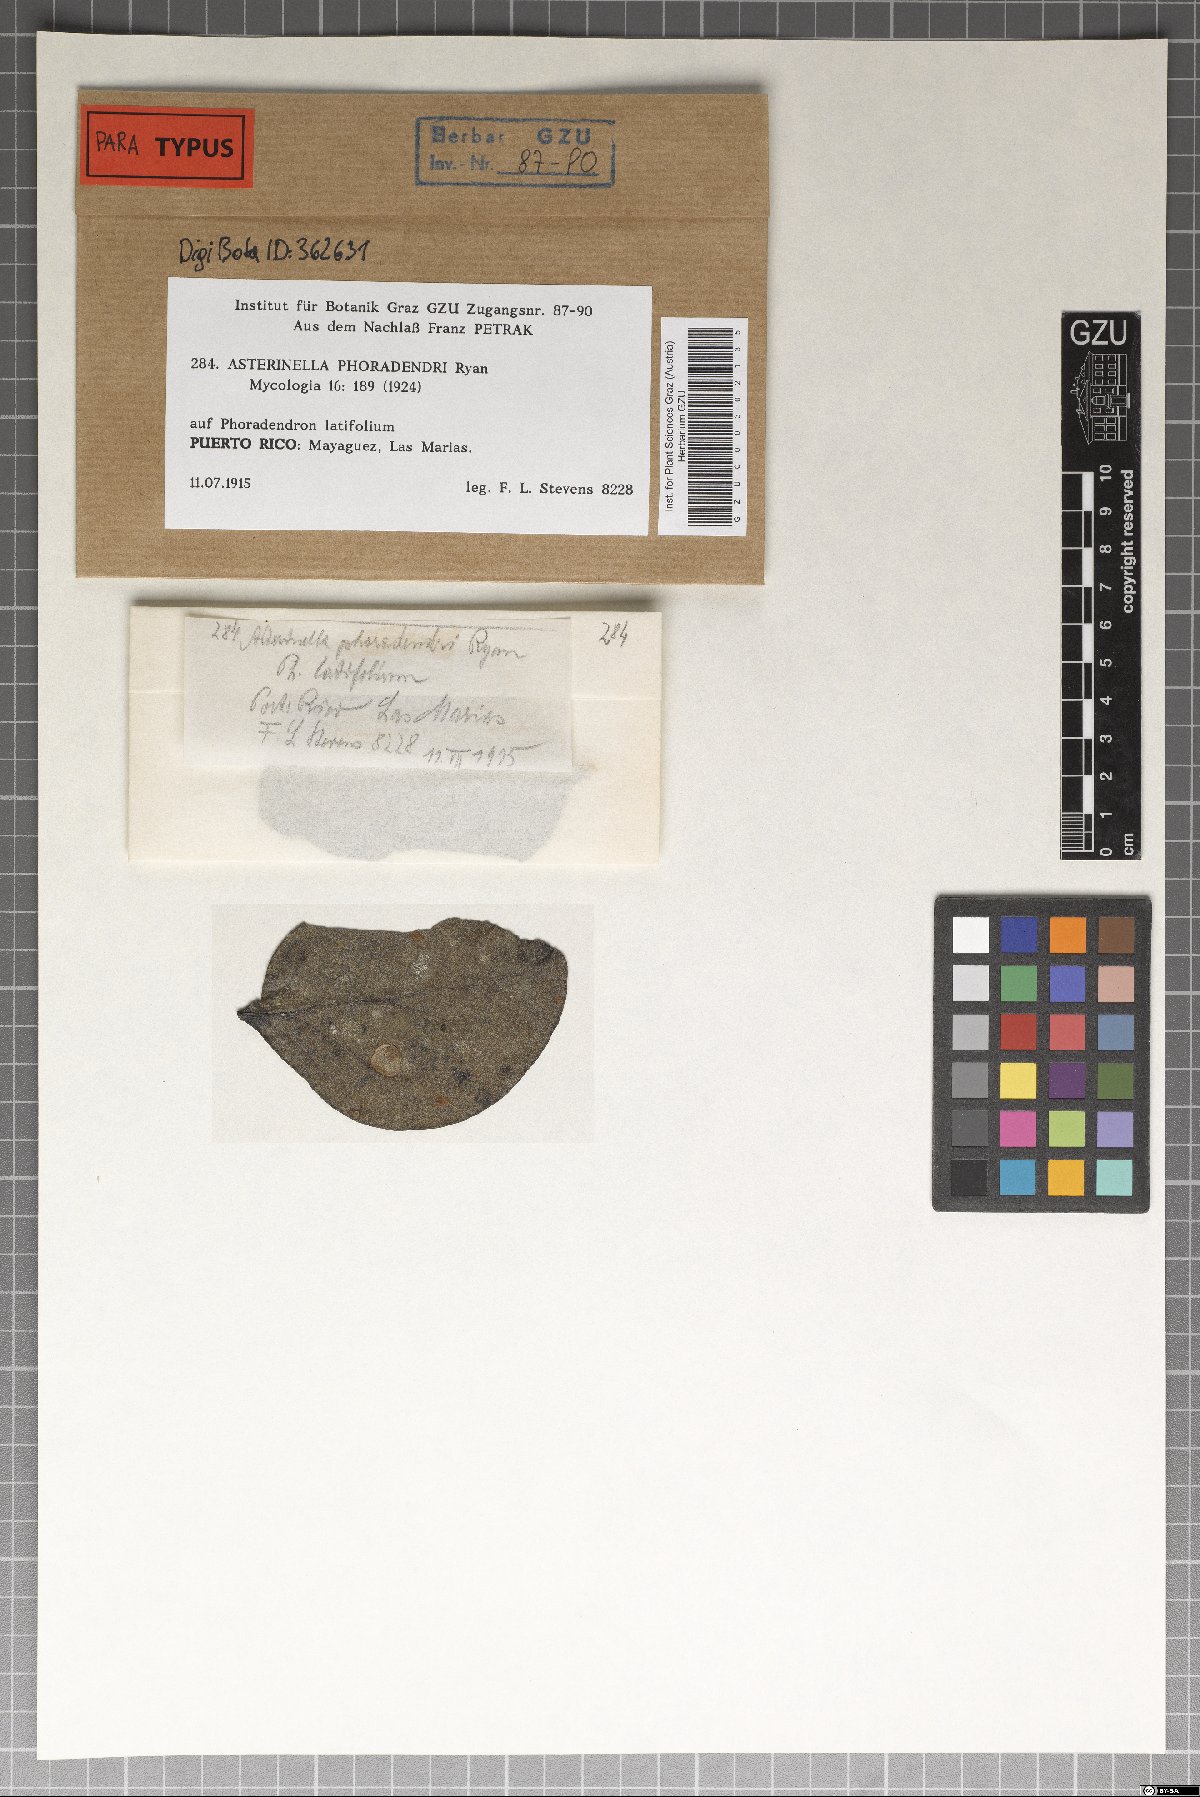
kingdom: Fungi
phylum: Ascomycota
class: Dothideomycetes
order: Asterinales
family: Asterinaceae
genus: Prillieuxina
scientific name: Prillieuxina phoradendri
